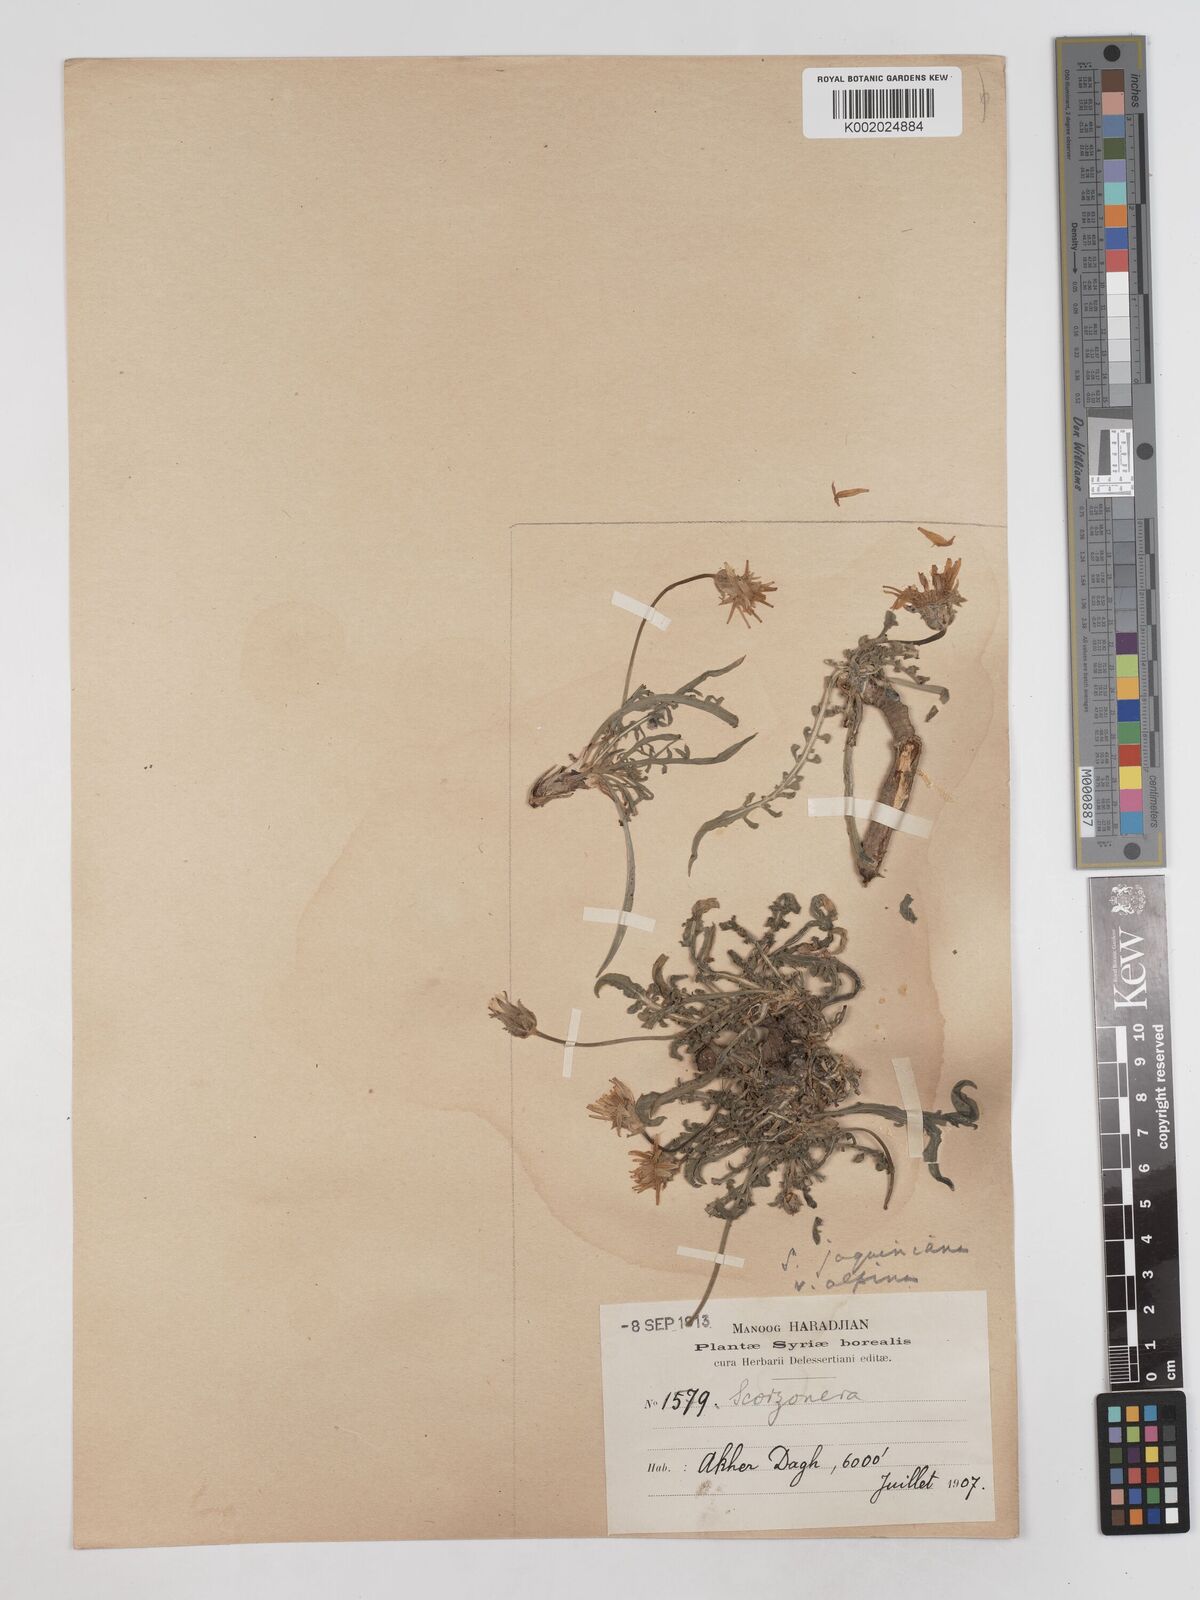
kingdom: Plantae
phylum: Tracheophyta
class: Magnoliopsida
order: Asterales
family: Asteraceae
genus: Scorzonera
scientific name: Scorzonera cana
